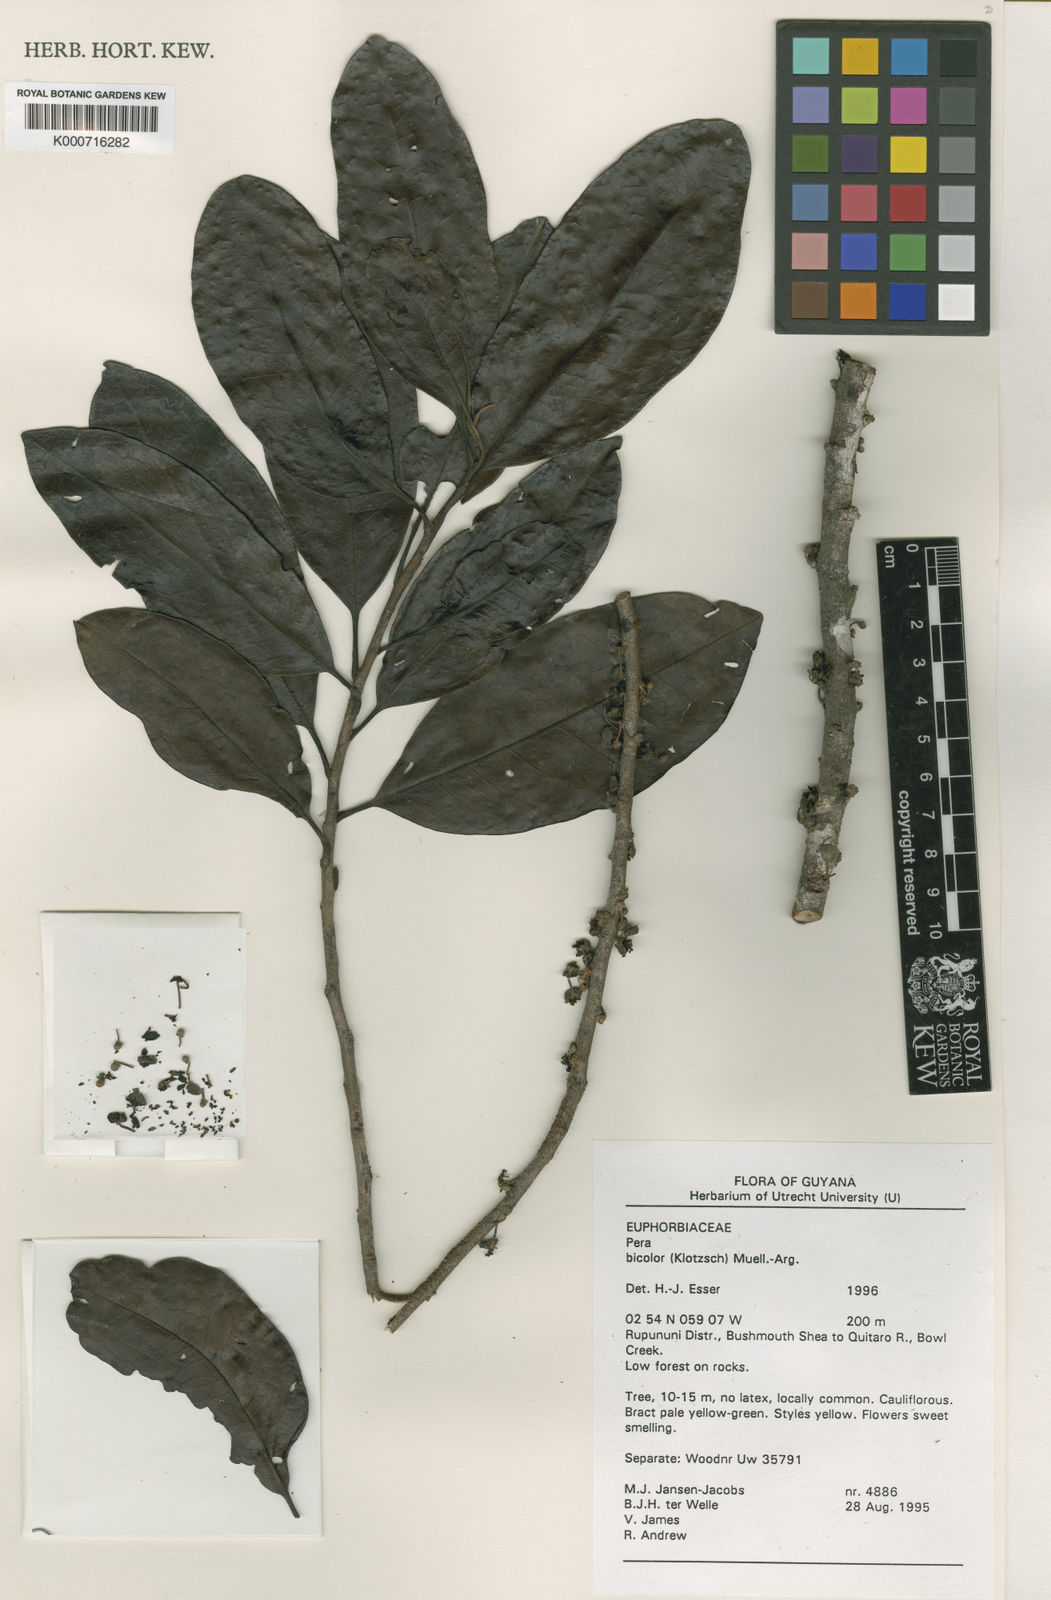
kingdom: Plantae
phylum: Tracheophyta
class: Magnoliopsida
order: Malpighiales
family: Peraceae
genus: Pera
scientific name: Pera
